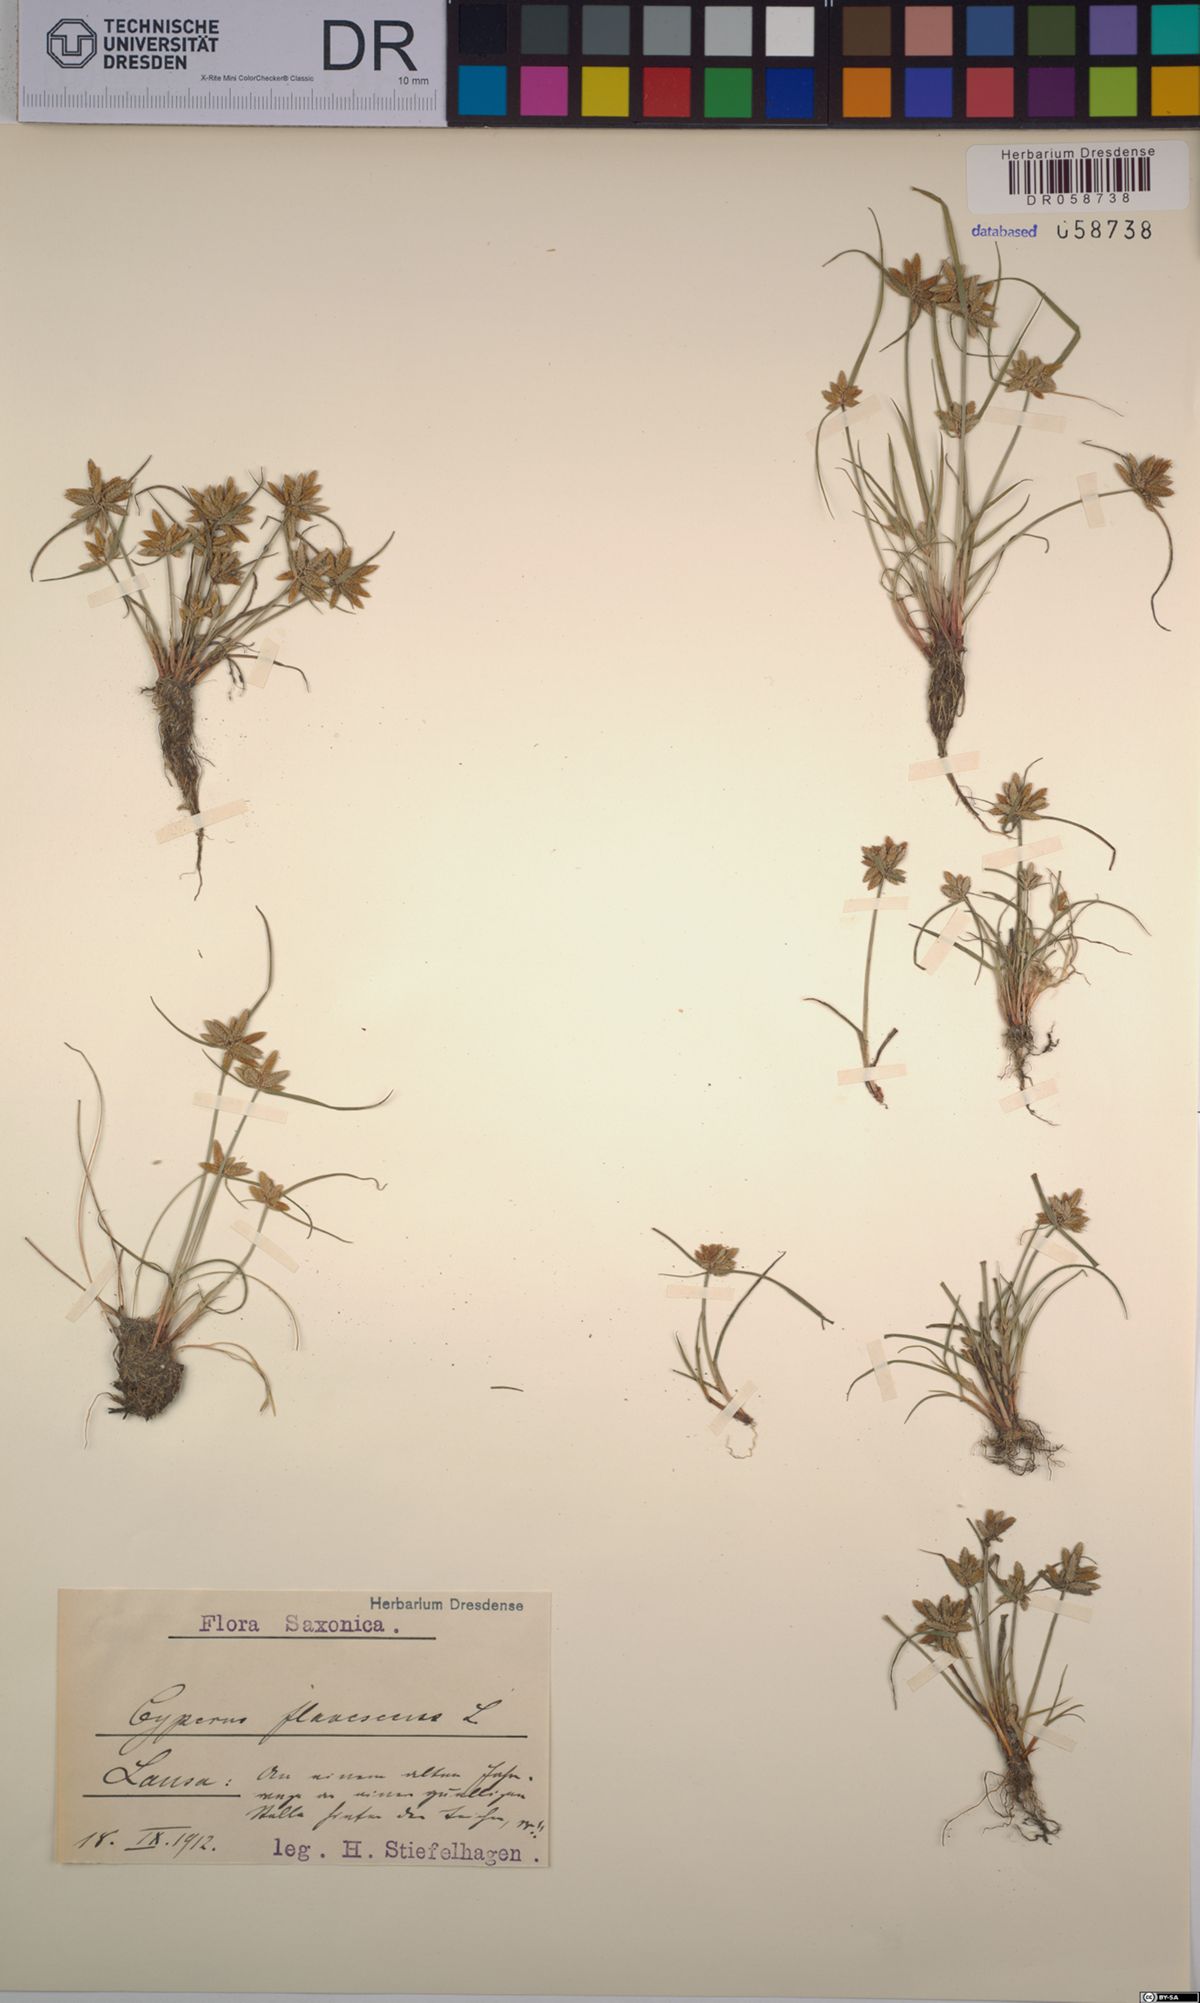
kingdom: Plantae
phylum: Tracheophyta
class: Liliopsida
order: Poales
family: Cyperaceae
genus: Cyperus
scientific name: Cyperus flavescens
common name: Yellow galingale
